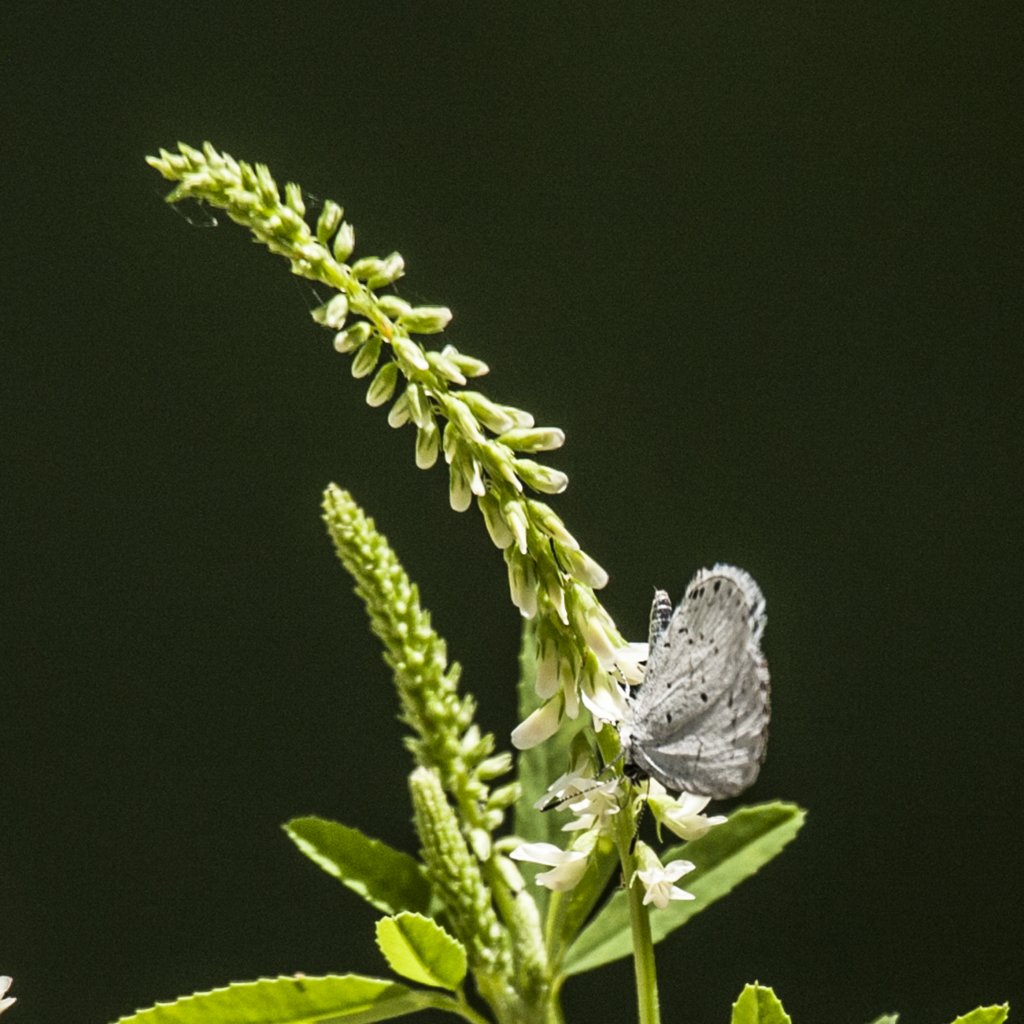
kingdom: Animalia
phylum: Arthropoda
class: Insecta
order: Lepidoptera
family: Lycaenidae
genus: Cyaniris
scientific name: Cyaniris neglecta
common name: Summer Azure
